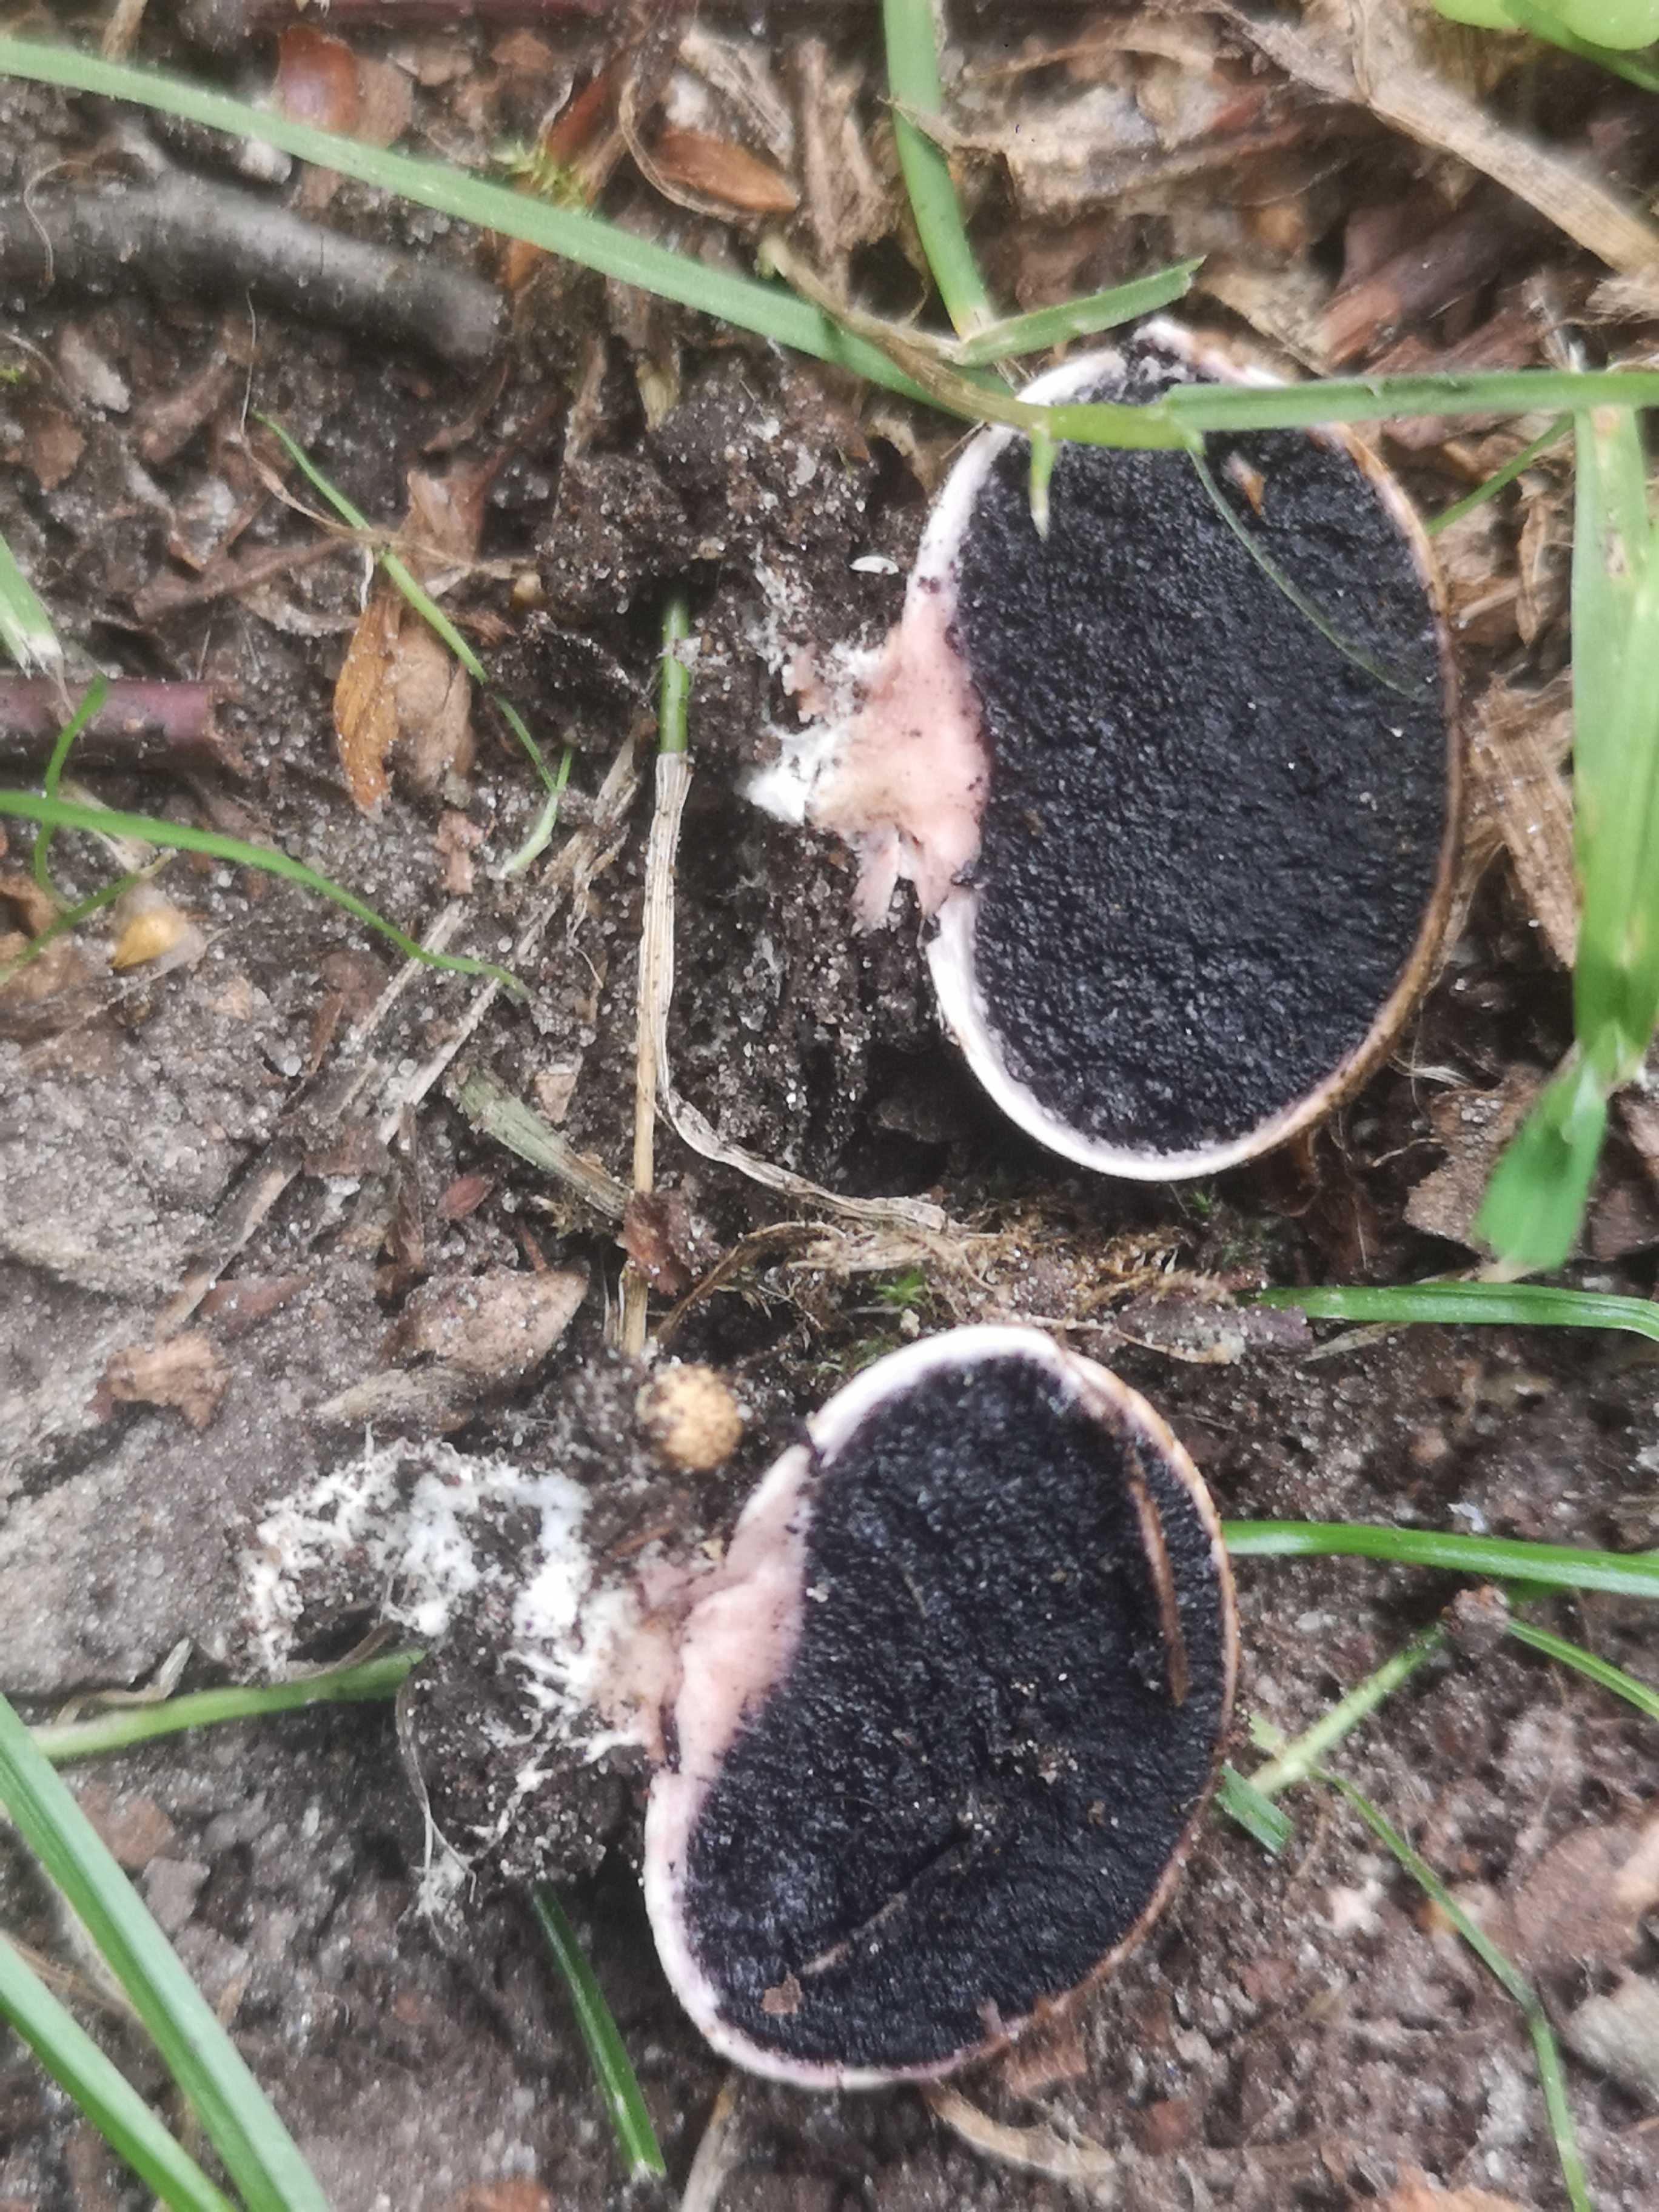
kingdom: Fungi
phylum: Basidiomycota
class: Agaricomycetes
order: Boletales
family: Sclerodermataceae
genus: Scleroderma
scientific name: Scleroderma areolatum
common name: plettet bruskbold
